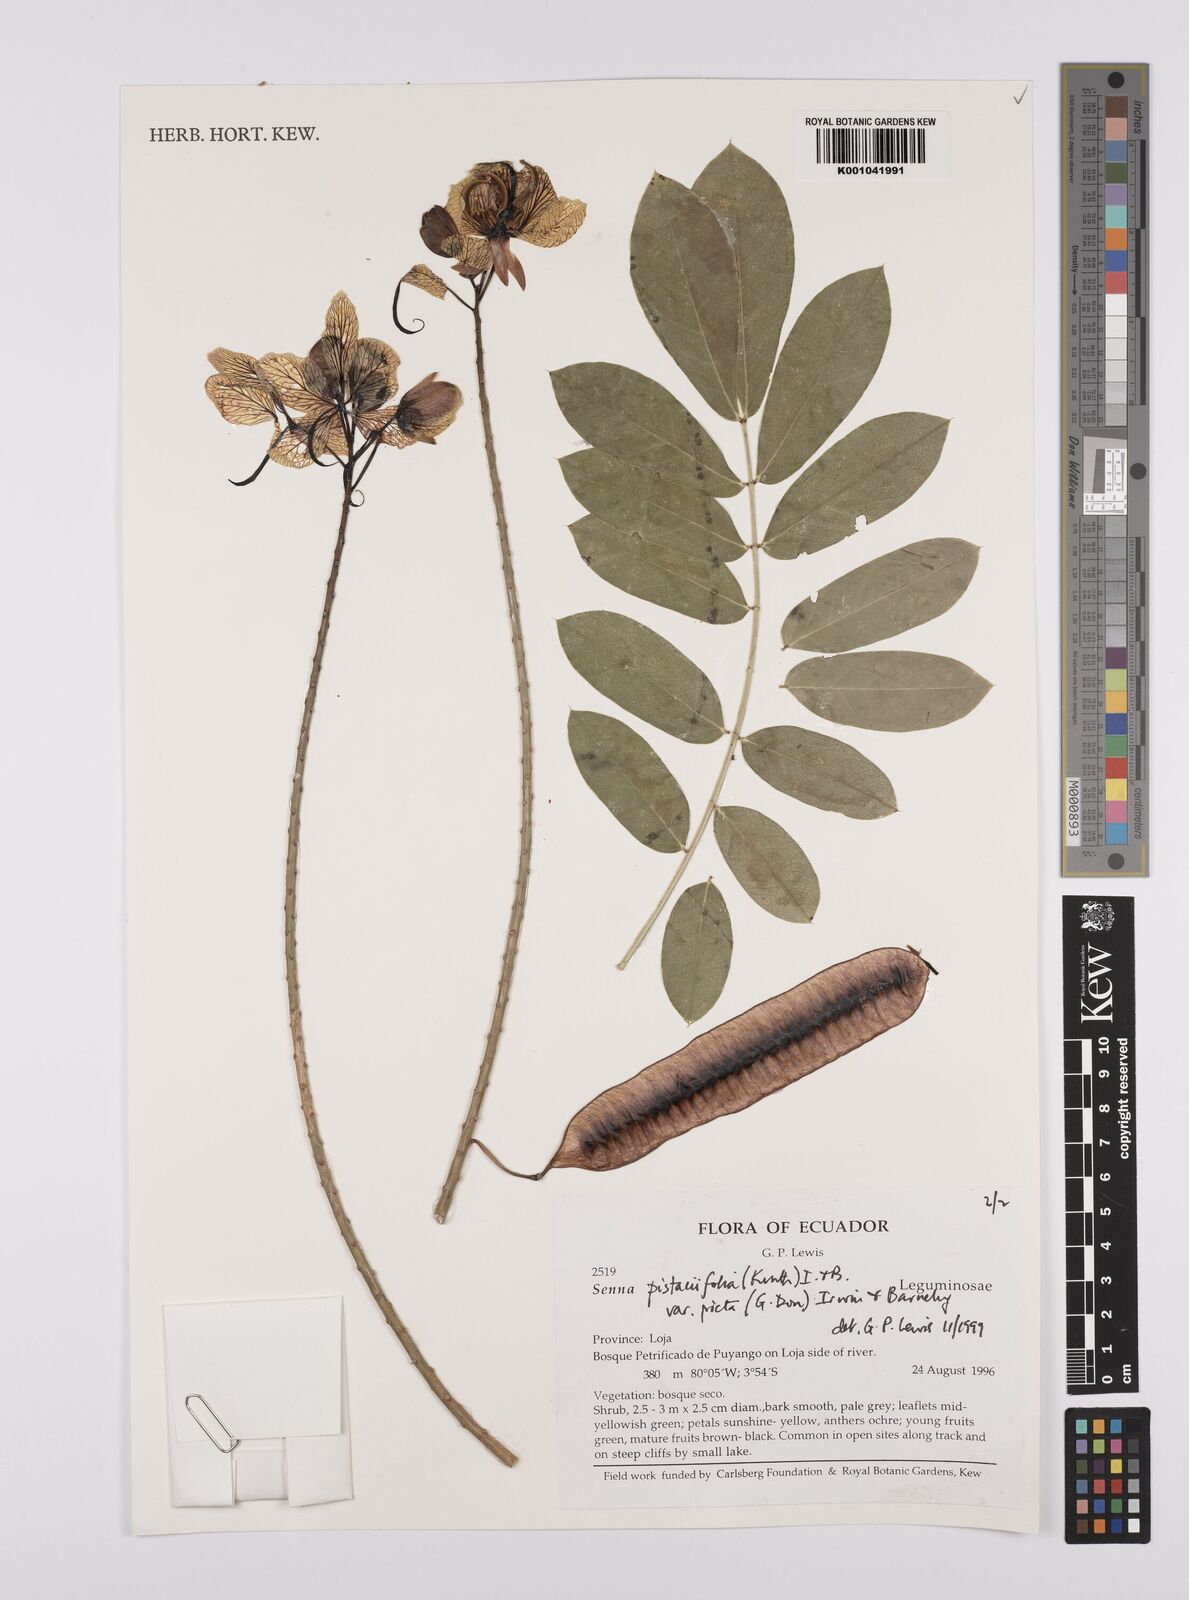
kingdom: Plantae
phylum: Tracheophyta
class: Magnoliopsida
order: Fabales
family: Fabaceae
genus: Senna
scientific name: Senna pistaciifolia
